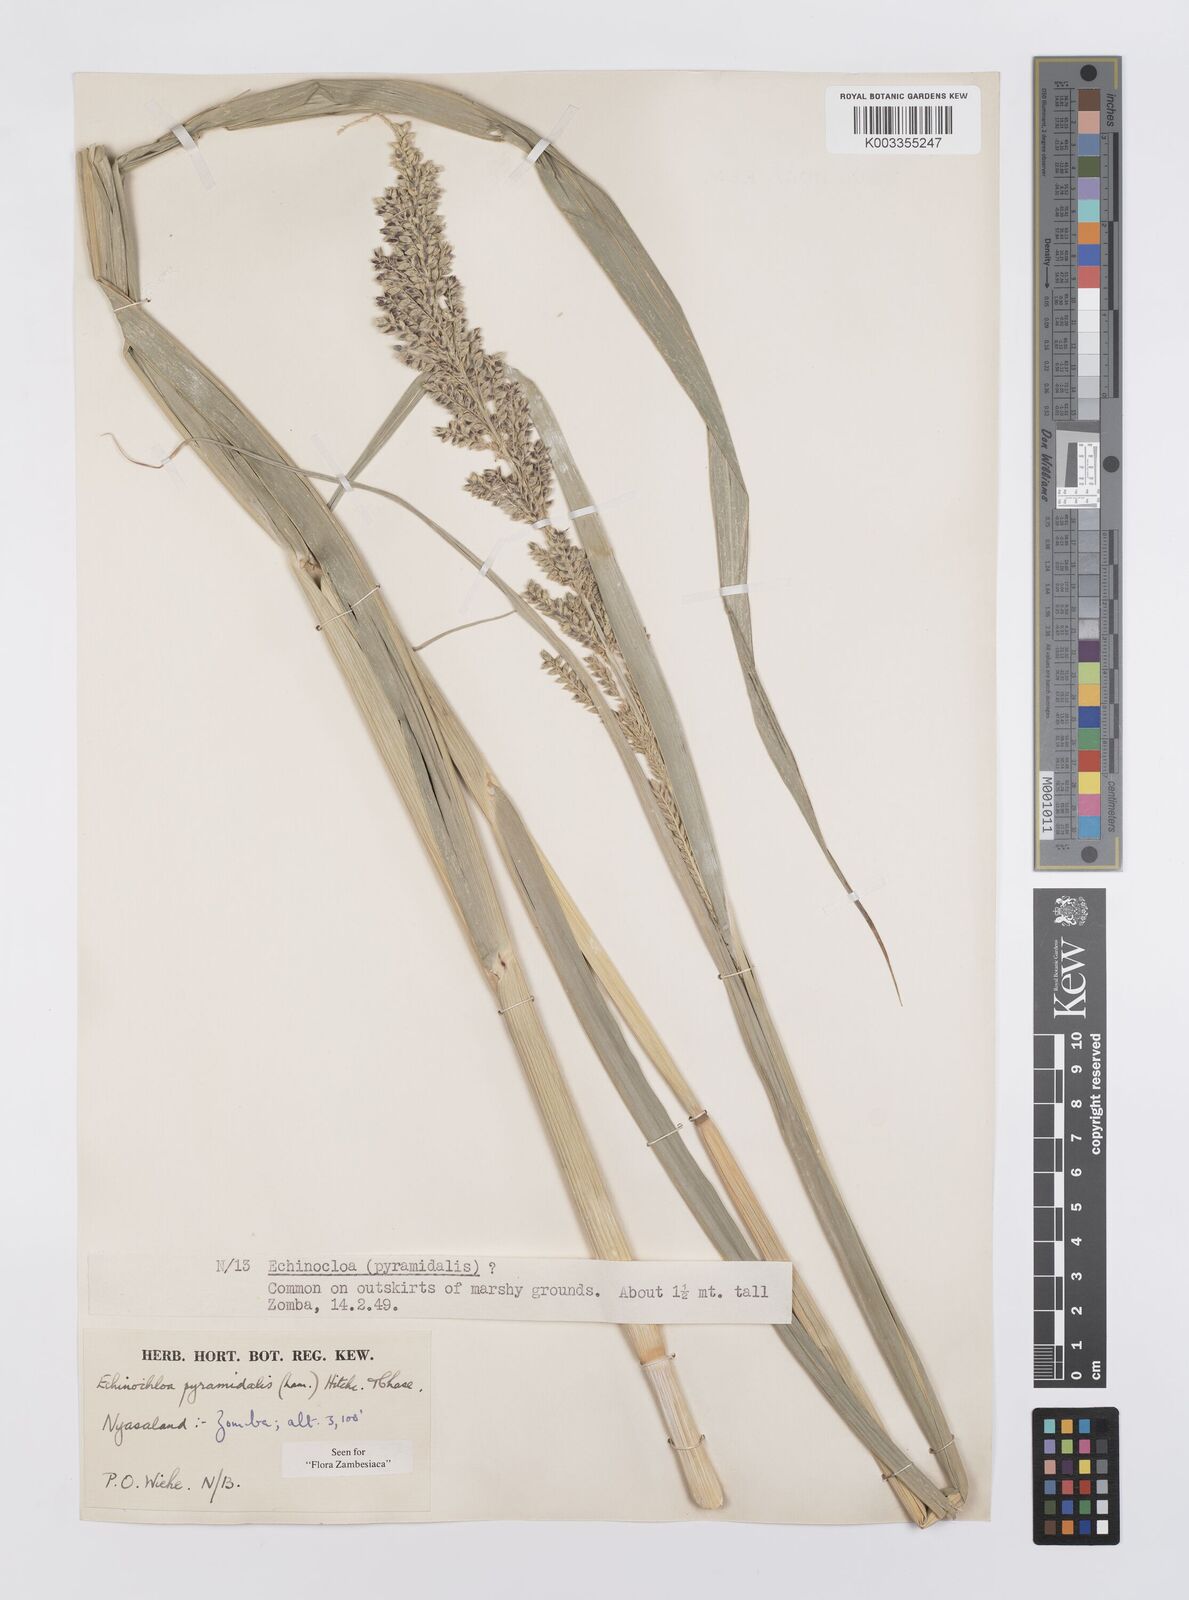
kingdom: Plantae
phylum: Tracheophyta
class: Liliopsida
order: Poales
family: Poaceae
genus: Echinochloa
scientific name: Echinochloa pyramidalis
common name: Antelope grass
